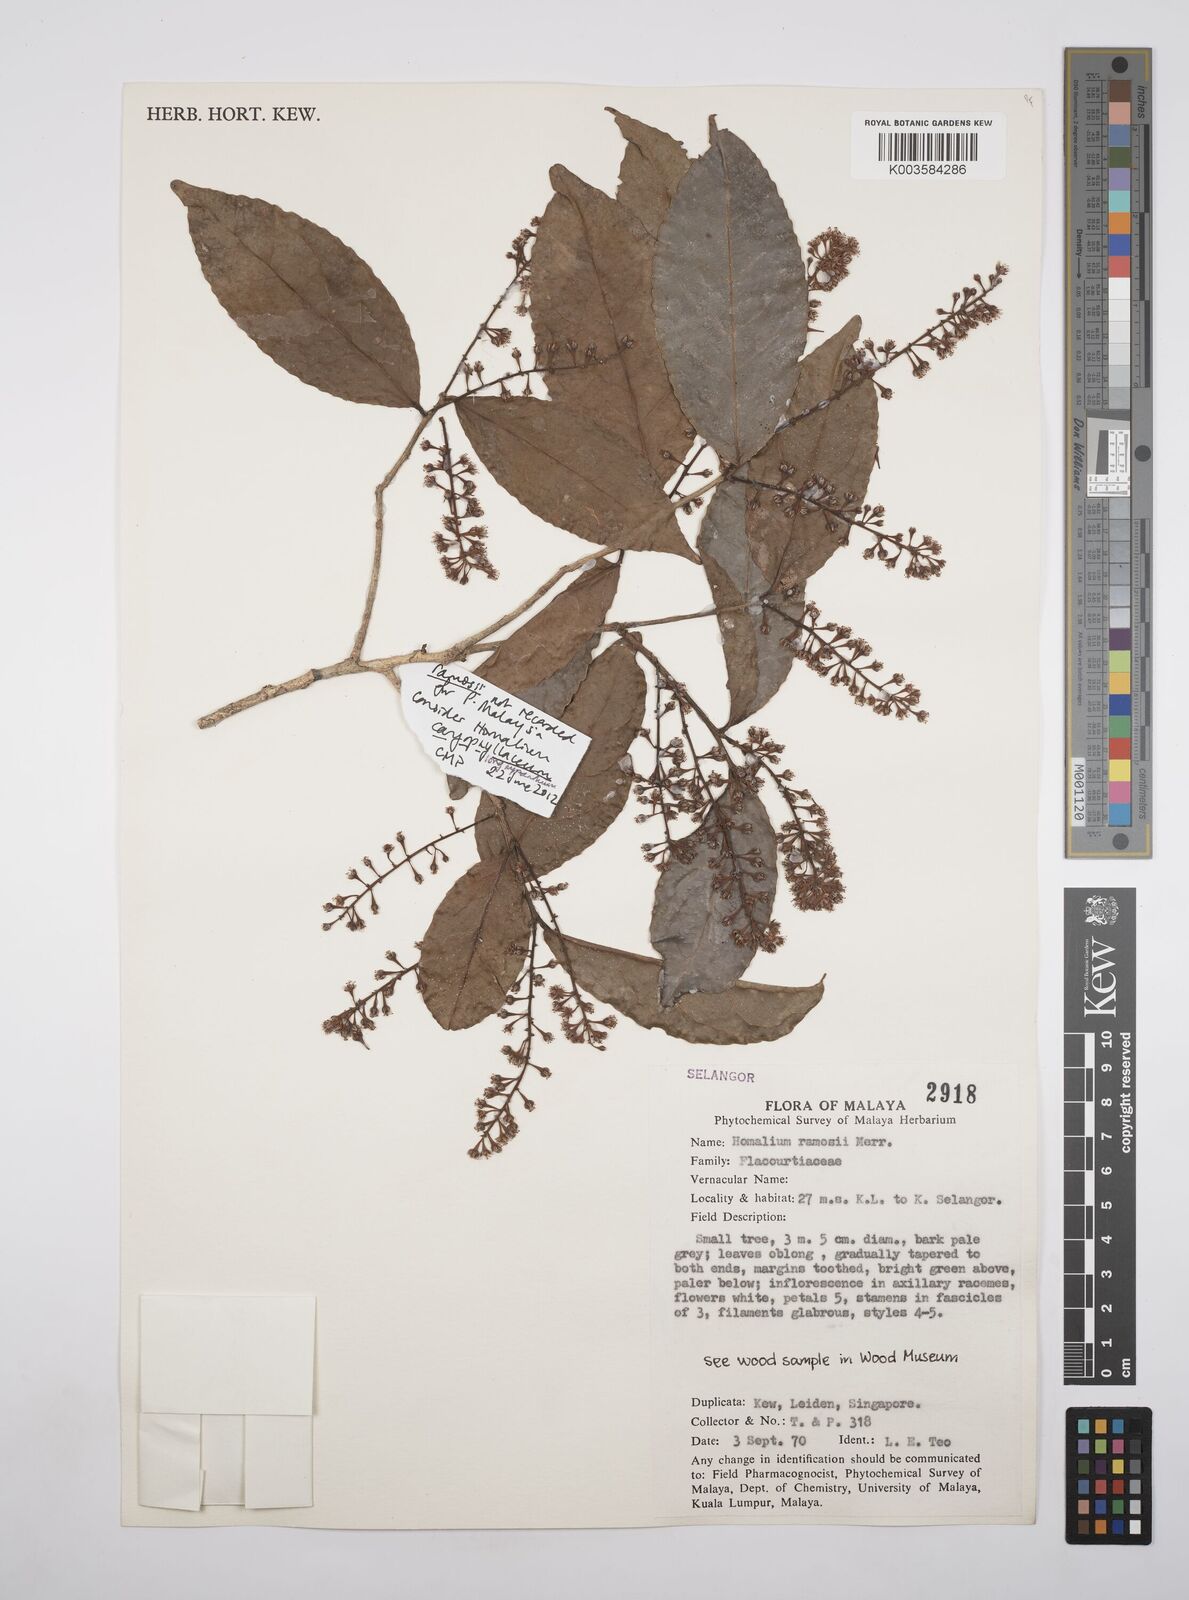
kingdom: Plantae
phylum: Tracheophyta
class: Magnoliopsida
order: Malpighiales
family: Salicaceae
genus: Homalium
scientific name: Homalium ramosii
